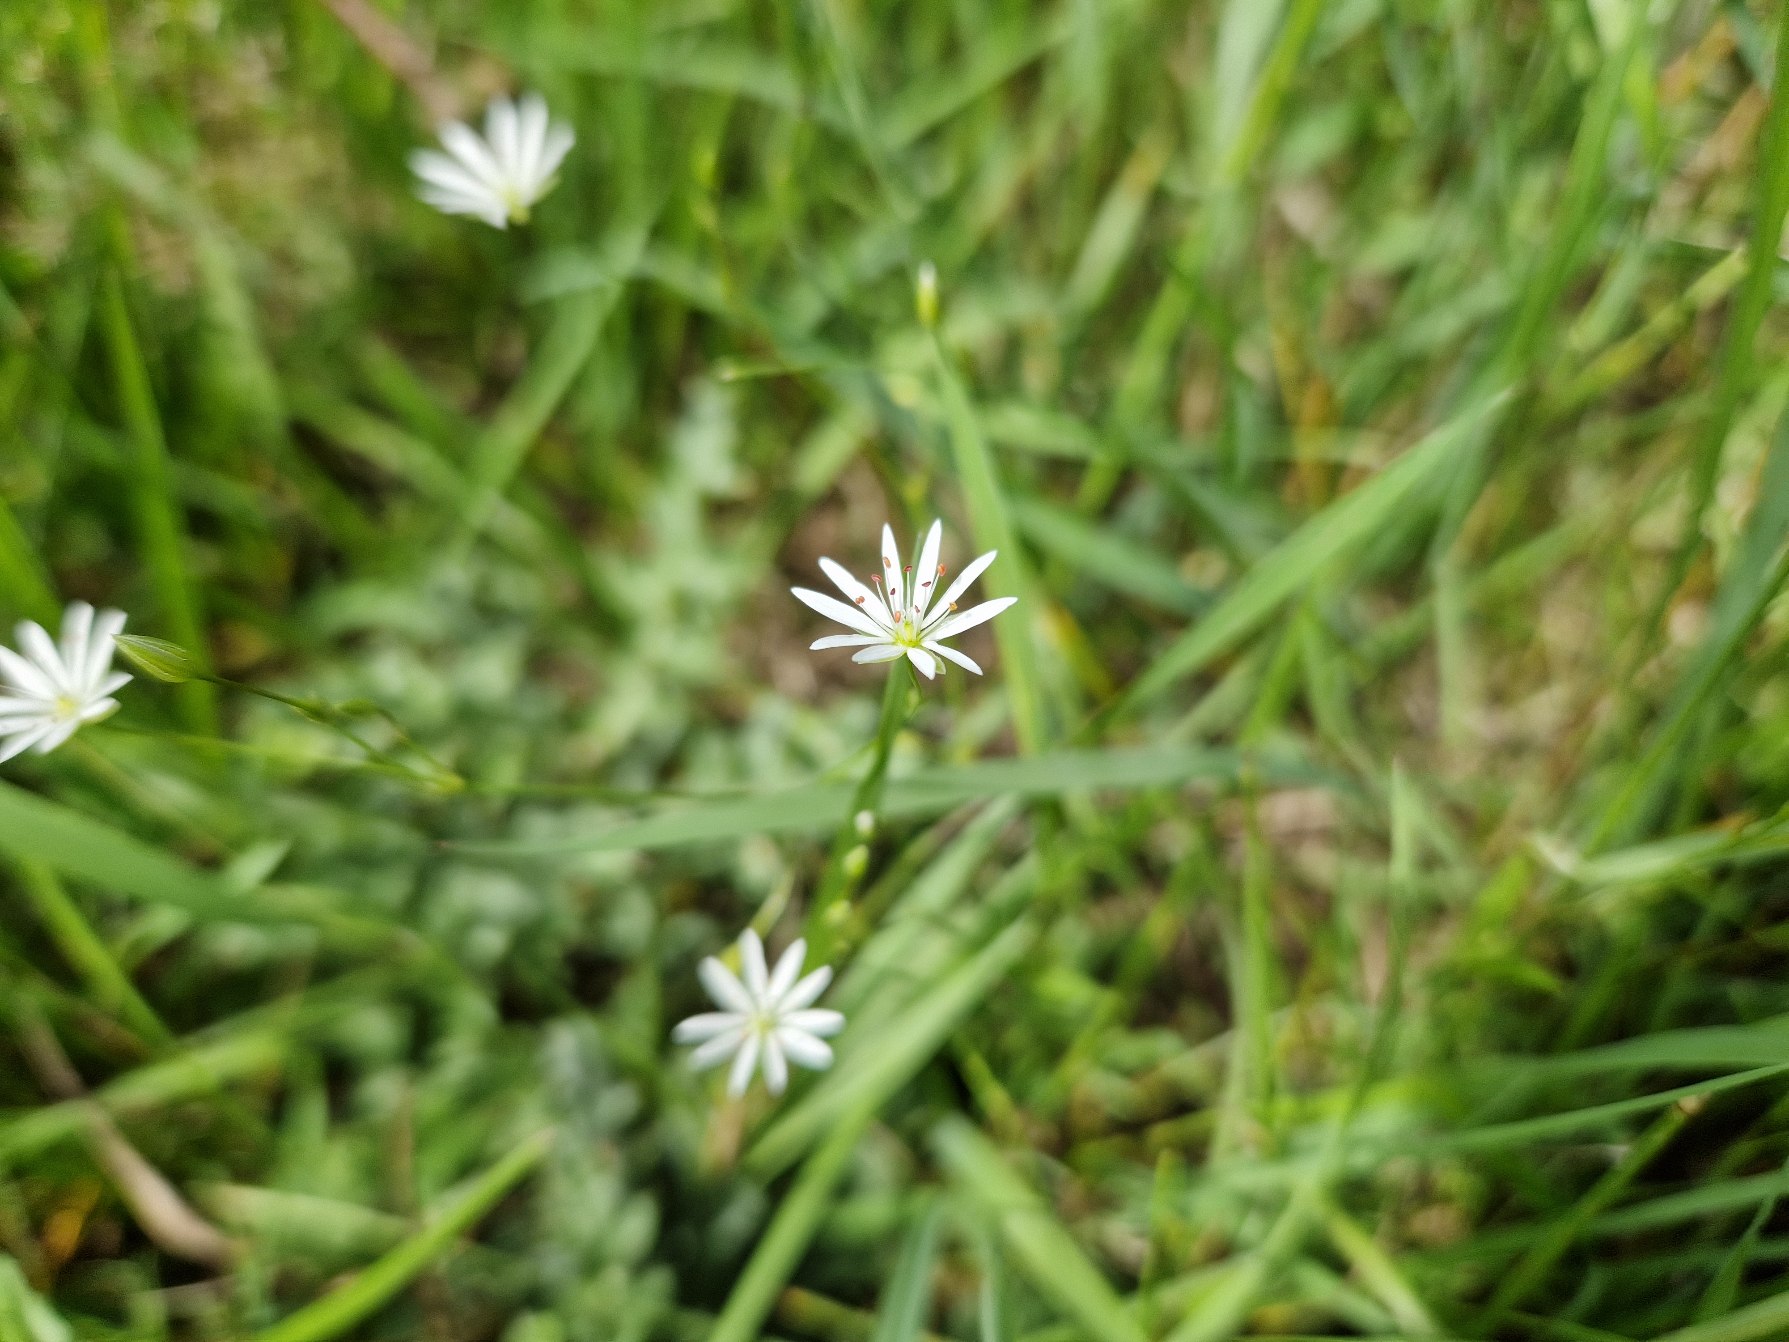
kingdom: Plantae
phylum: Tracheophyta
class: Magnoliopsida
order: Caryophyllales
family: Caryophyllaceae
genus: Stellaria
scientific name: Stellaria graminea
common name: Græsbladet fladstjerne
